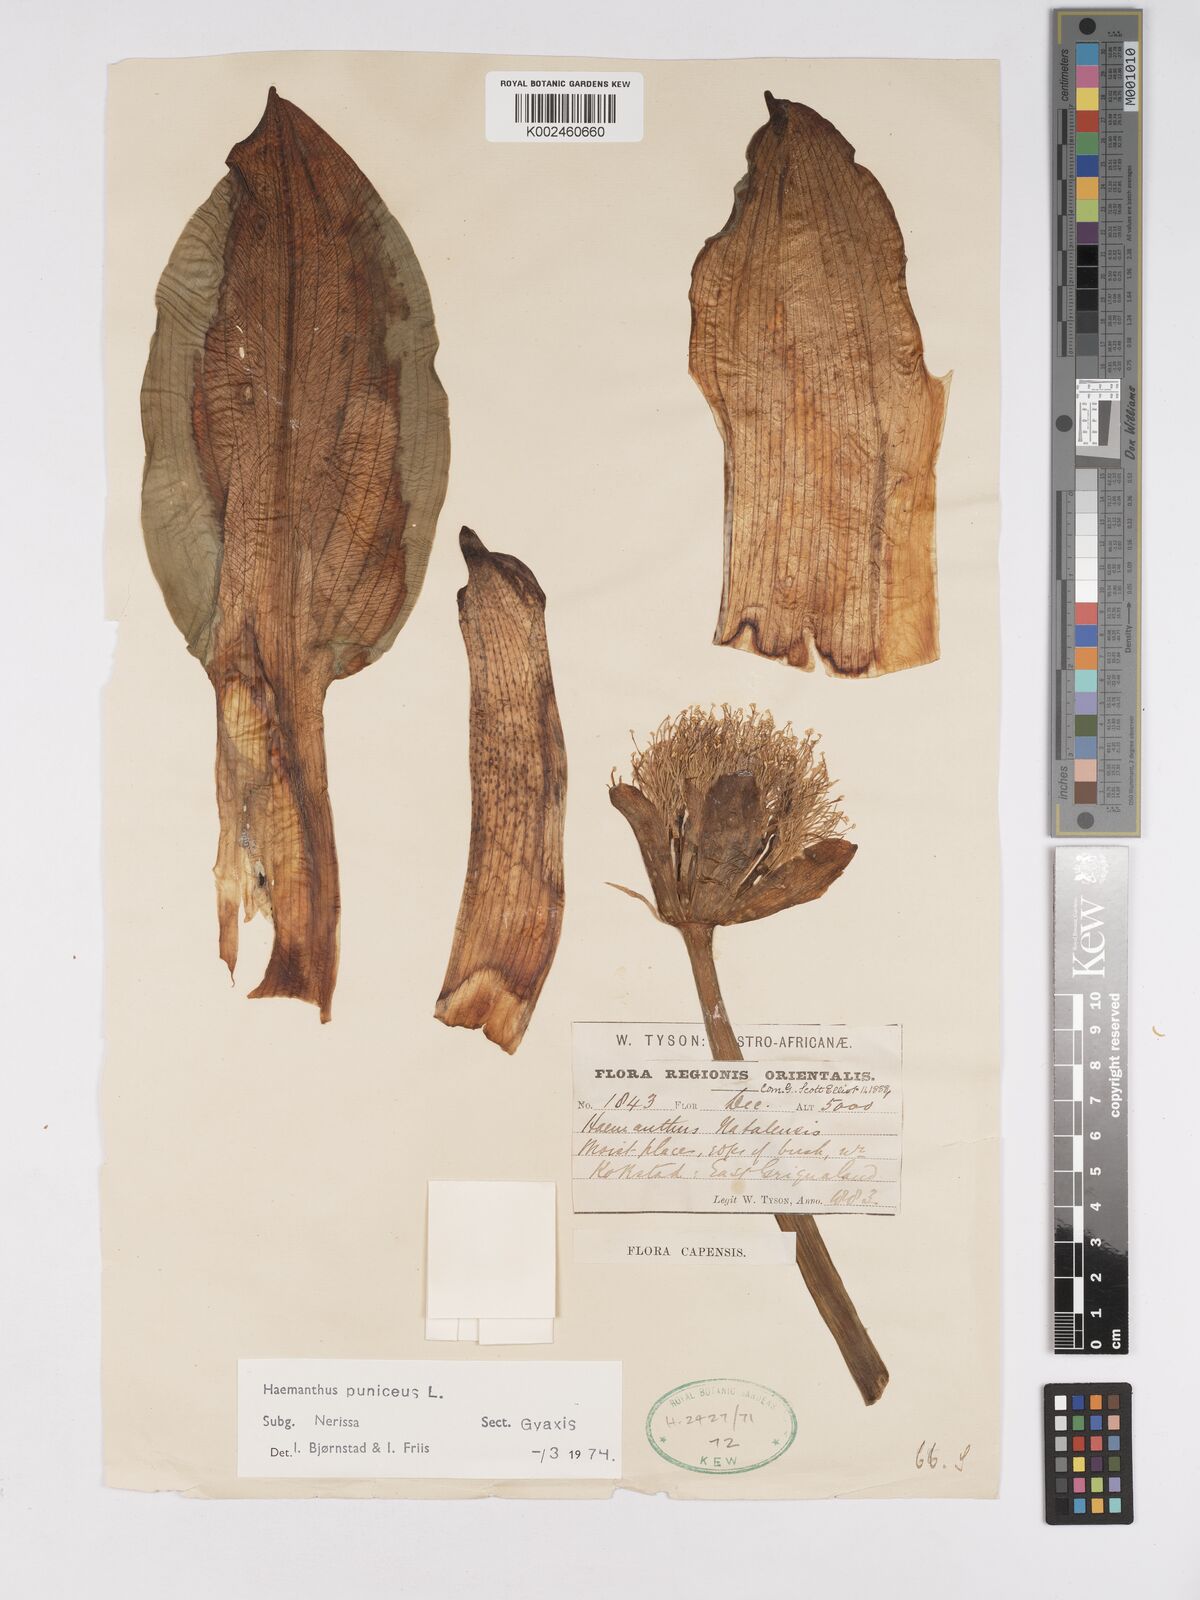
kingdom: Plantae
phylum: Tracheophyta
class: Liliopsida
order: Asparagales
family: Amaryllidaceae
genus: Scadoxus
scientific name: Scadoxus puniceus
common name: Royal-paintbrush
